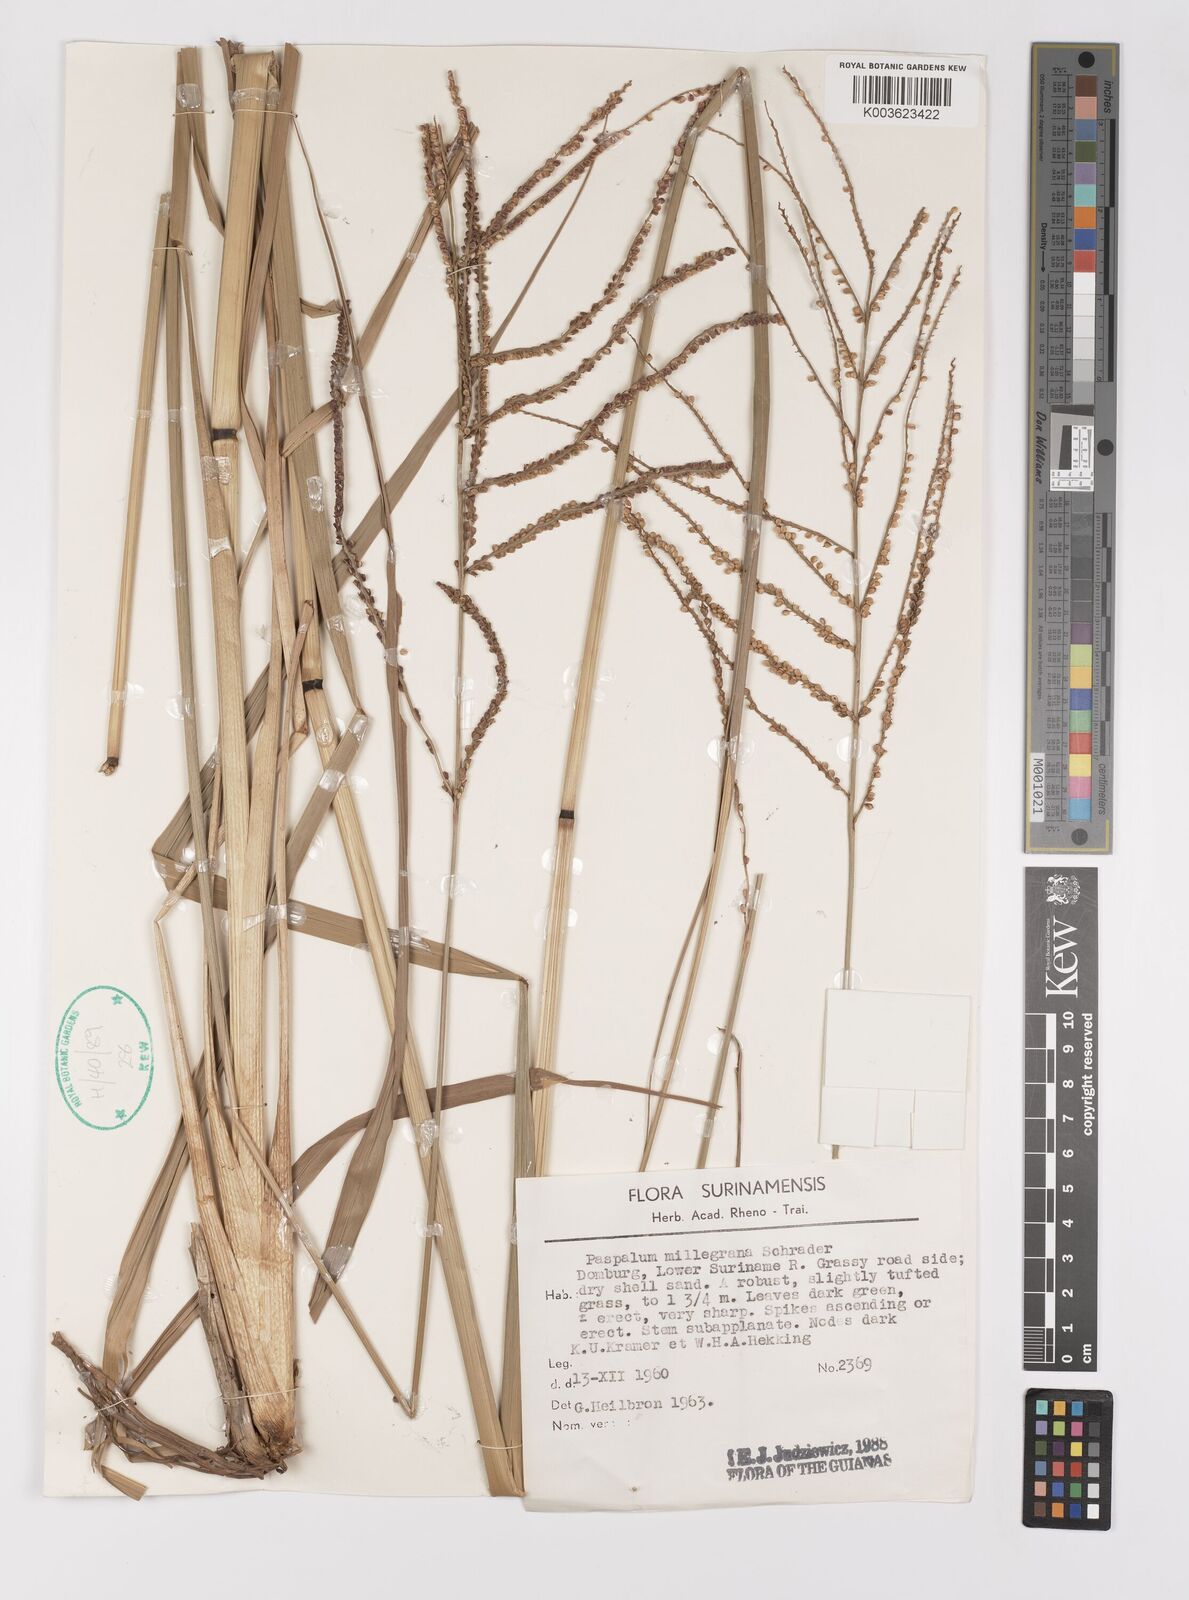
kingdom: Plantae
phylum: Tracheophyta
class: Liliopsida
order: Poales
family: Poaceae
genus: Paspalum
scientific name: Paspalum millegranum
